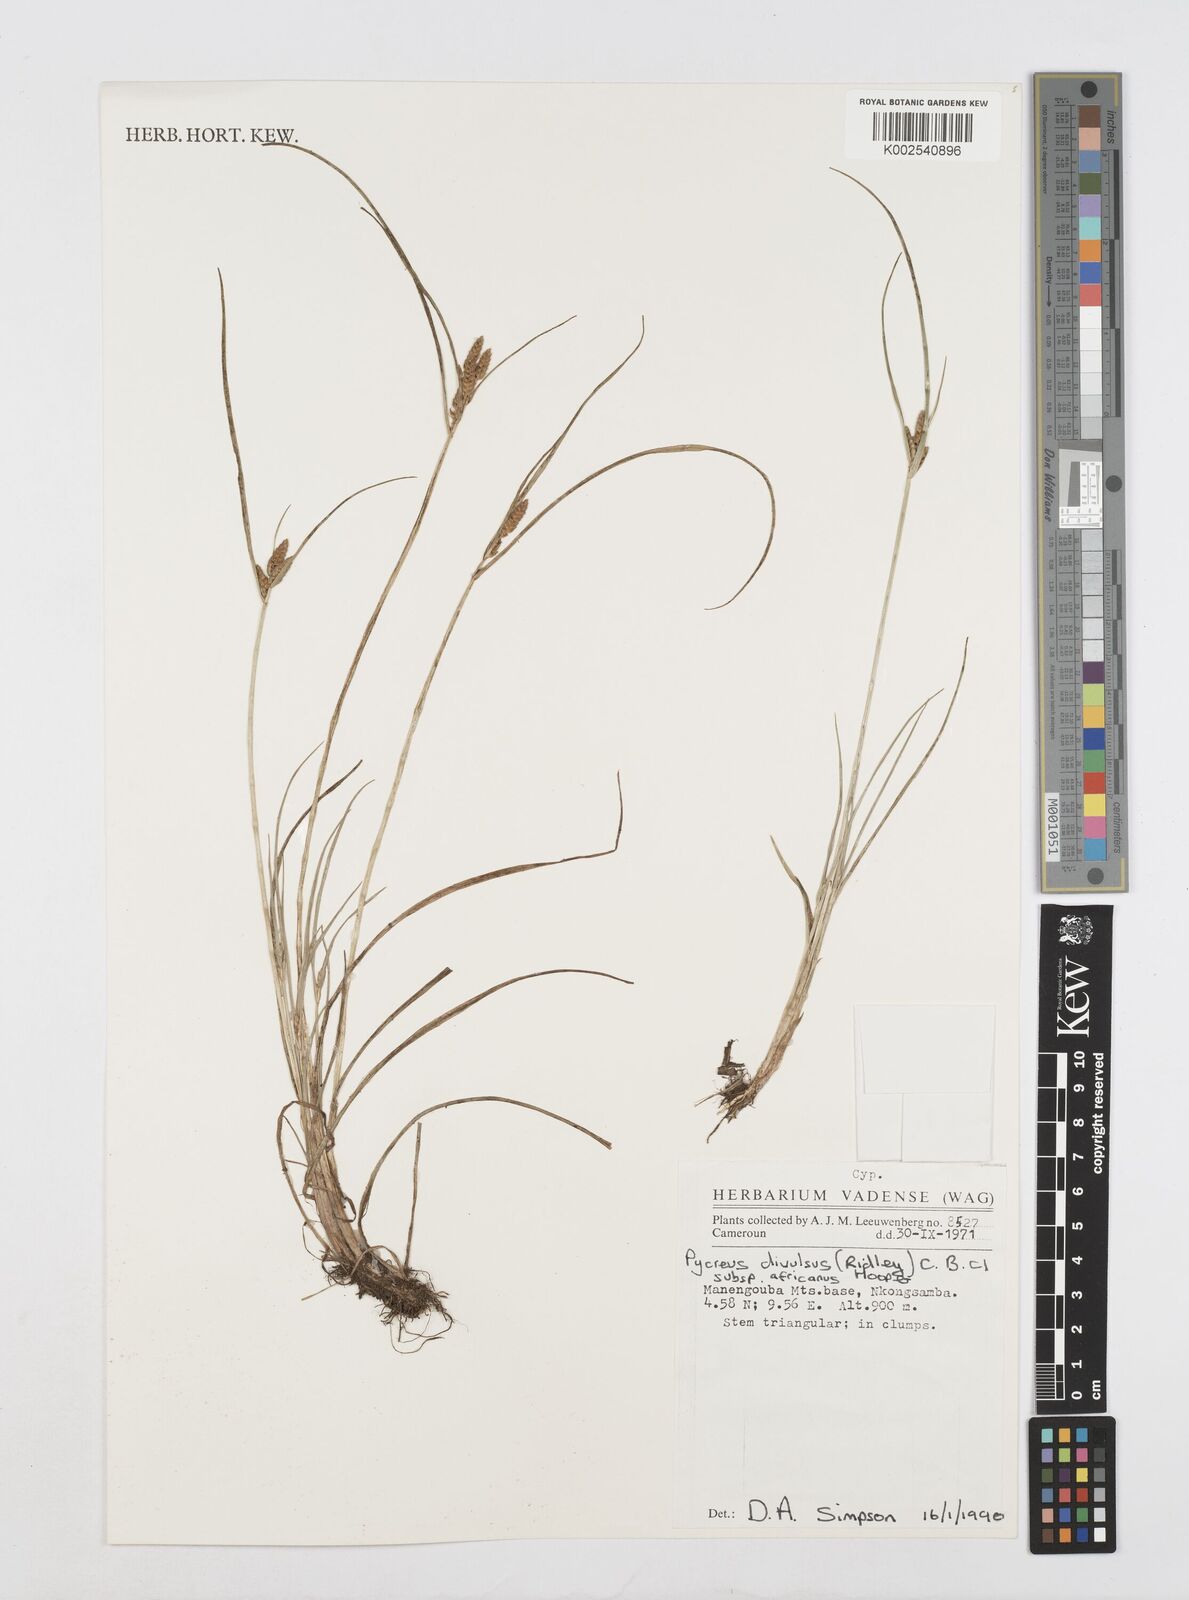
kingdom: Plantae
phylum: Tracheophyta
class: Liliopsida
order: Poales
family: Cyperaceae
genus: Cyperus
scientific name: Cyperus divulsus
